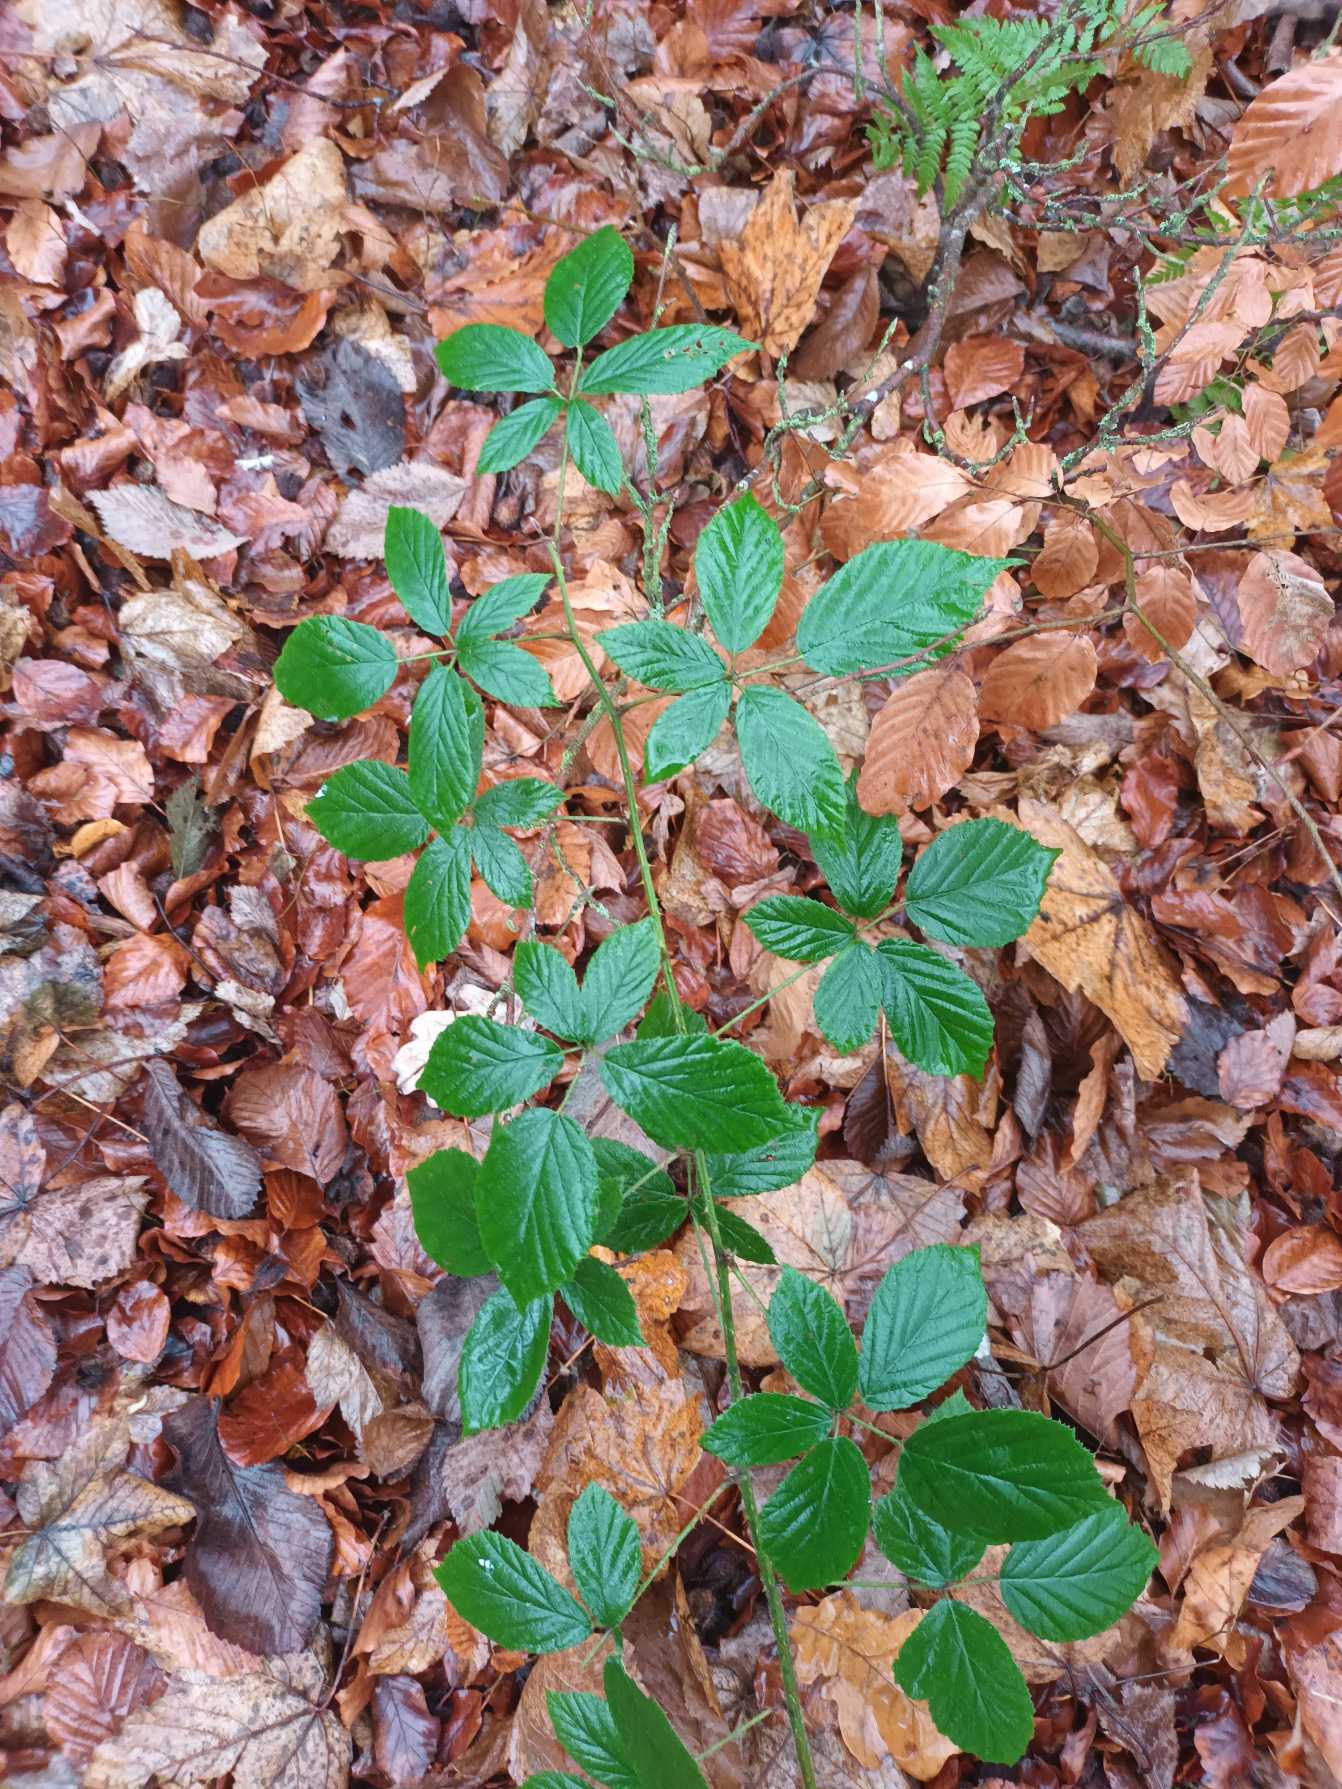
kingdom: Plantae
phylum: Tracheophyta
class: Magnoliopsida
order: Rosales
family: Rosaceae
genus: Rubus
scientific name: Rubus radula
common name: Rasperu brombær
